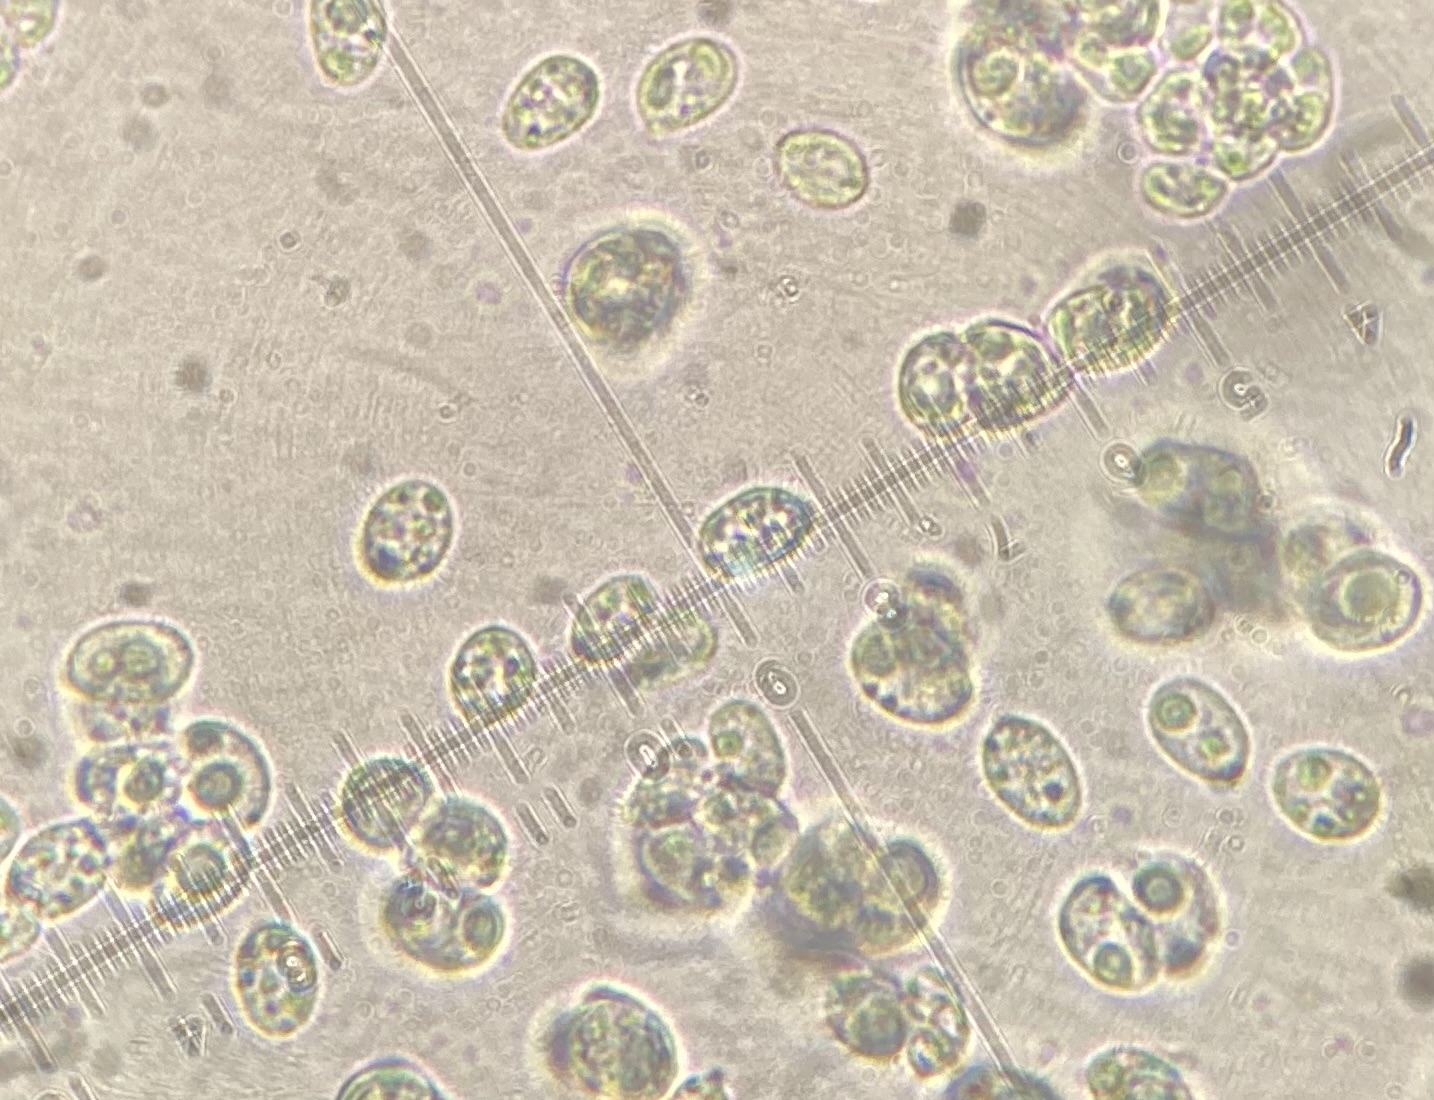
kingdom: Fungi
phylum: Basidiomycota
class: Agaricomycetes
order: Agaricales
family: Hygrophoraceae
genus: Lichenomphalia
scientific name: Lichenomphalia umbellifera
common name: tørve-lavhat
